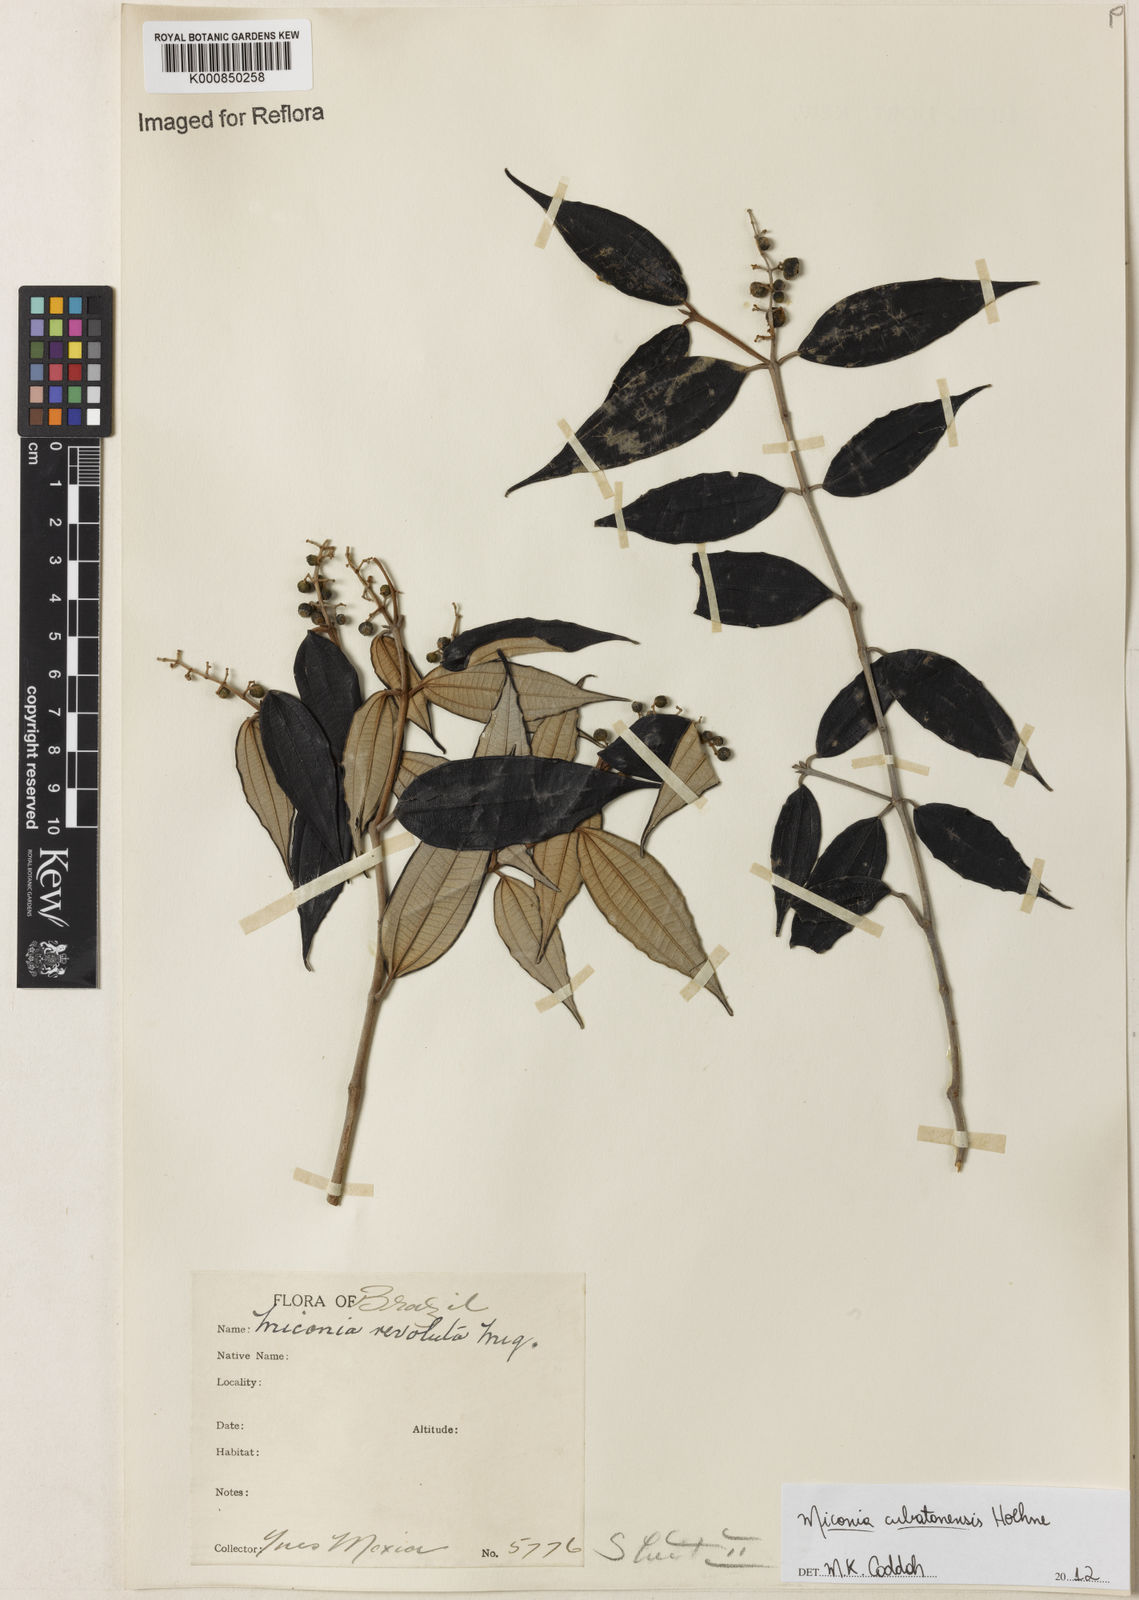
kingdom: Plantae
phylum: Tracheophyta
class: Magnoliopsida
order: Myrtales
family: Melastomataceae
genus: Miconia
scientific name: Miconia cubatanensis
